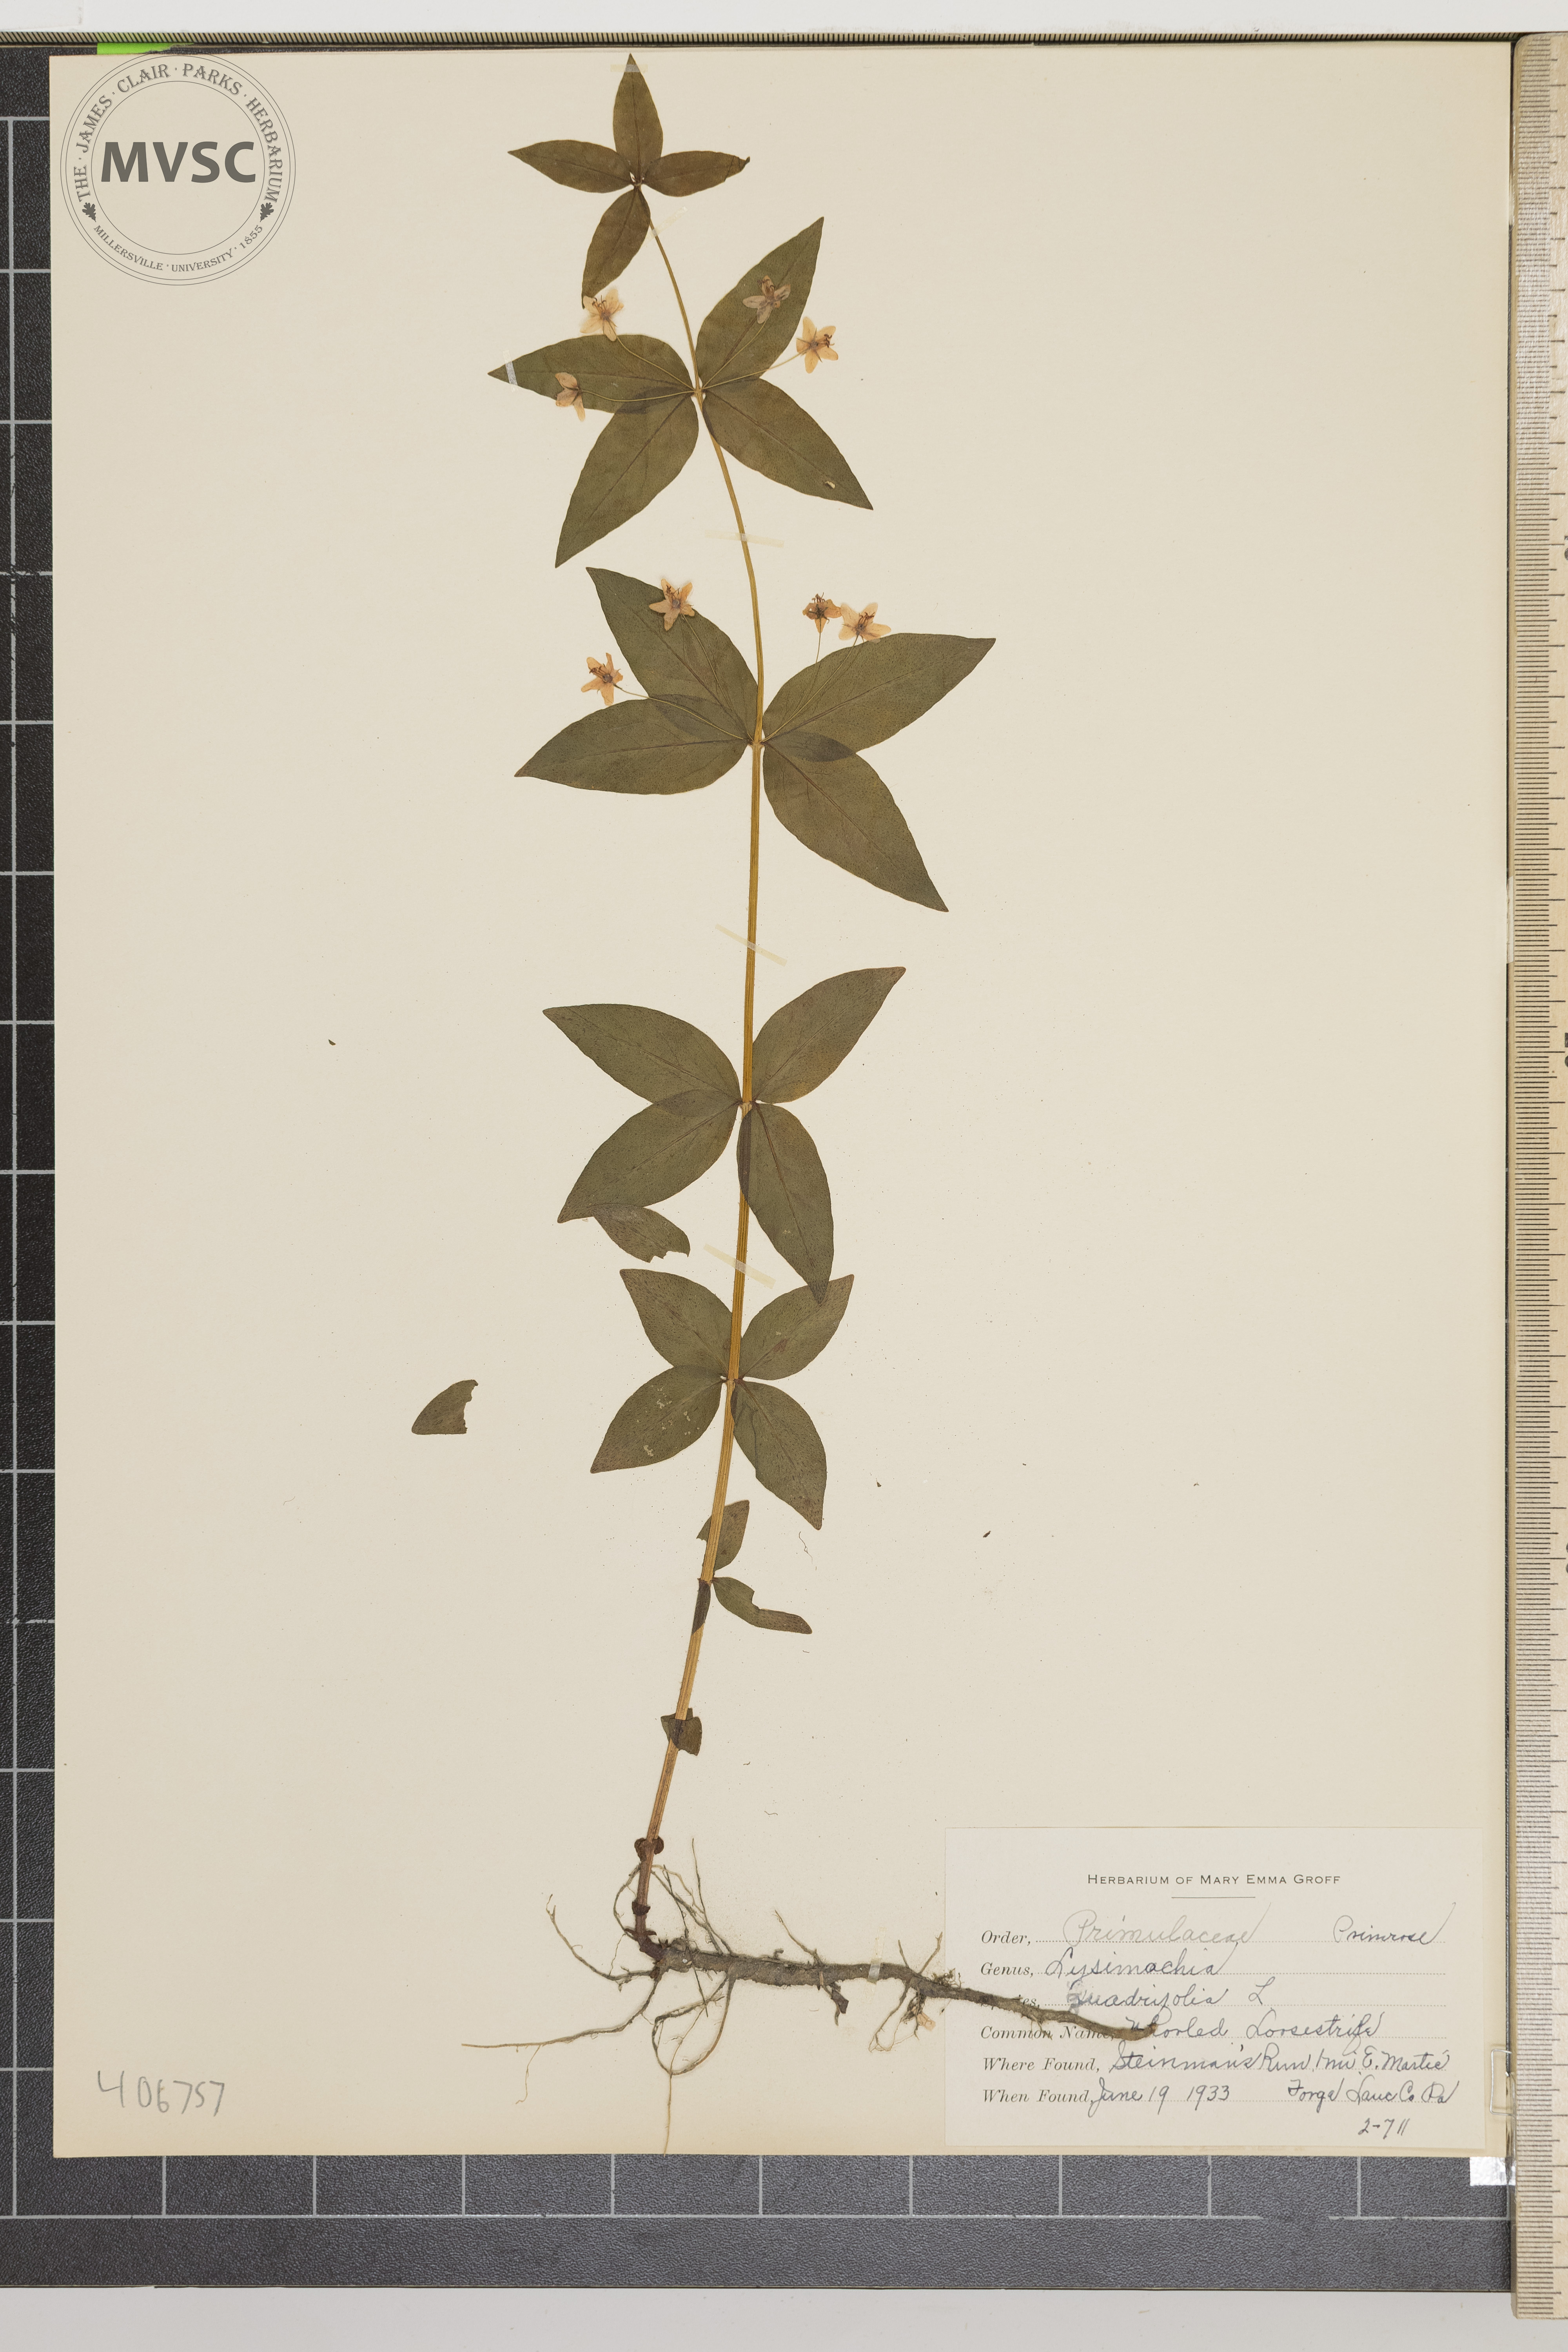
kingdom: Plantae
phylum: Tracheophyta
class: Magnoliopsida
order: Ericales
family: Primulaceae
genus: Lysimachia
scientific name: Lysimachia quadrifolia
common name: whorled loosestrife
